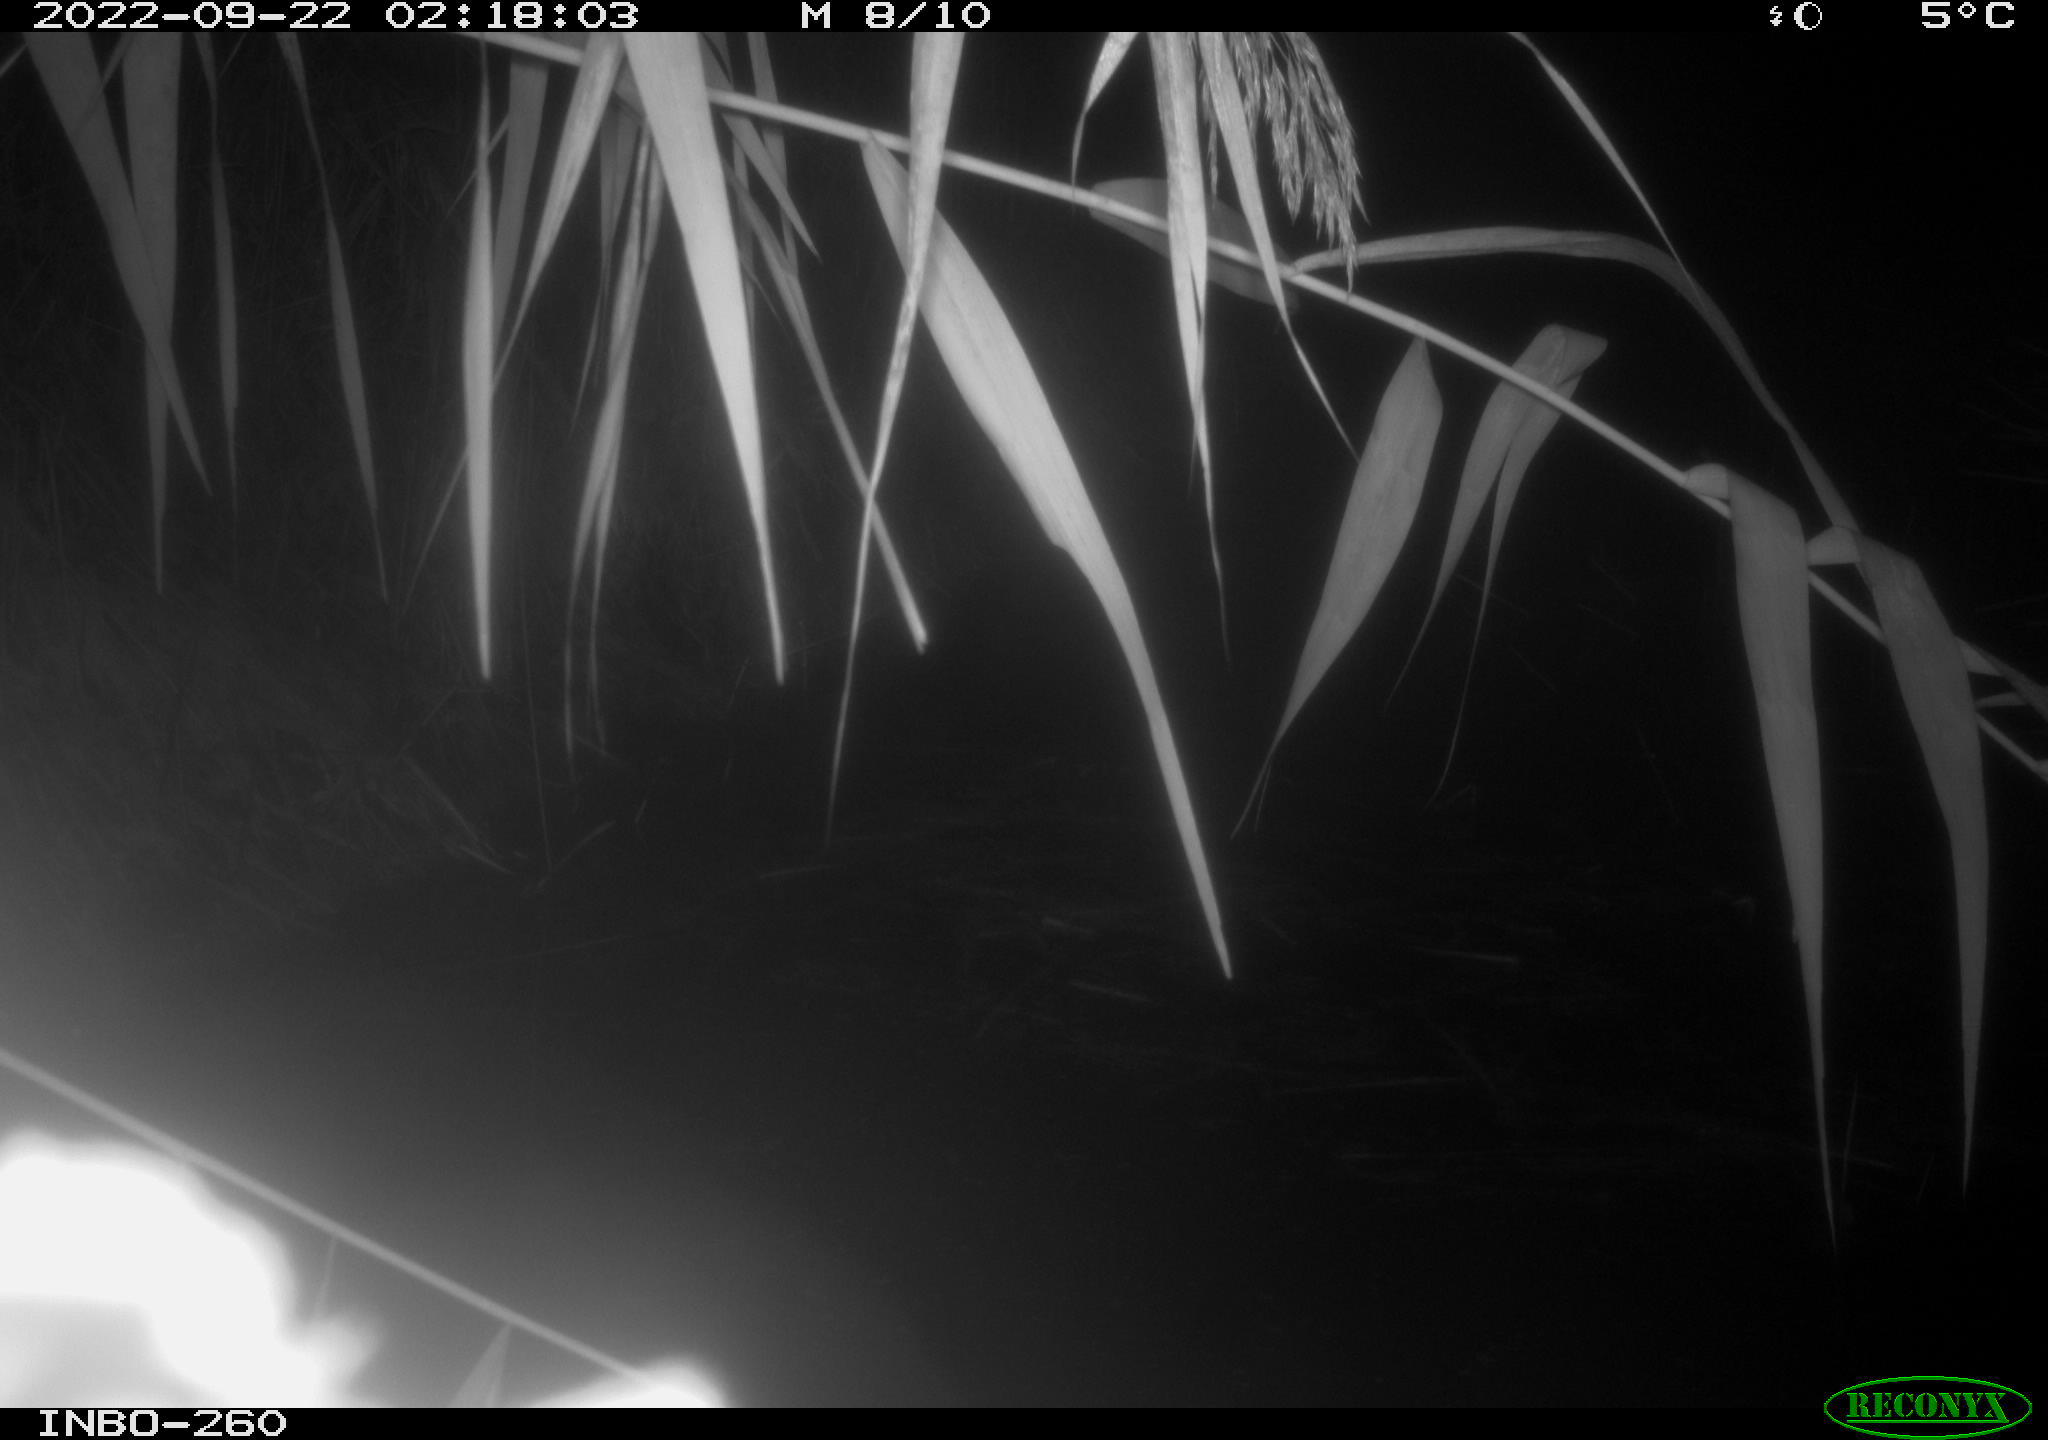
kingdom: Animalia
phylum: Chordata
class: Mammalia
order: Rodentia
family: Muridae
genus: Rattus
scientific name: Rattus norvegicus
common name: Brown rat
